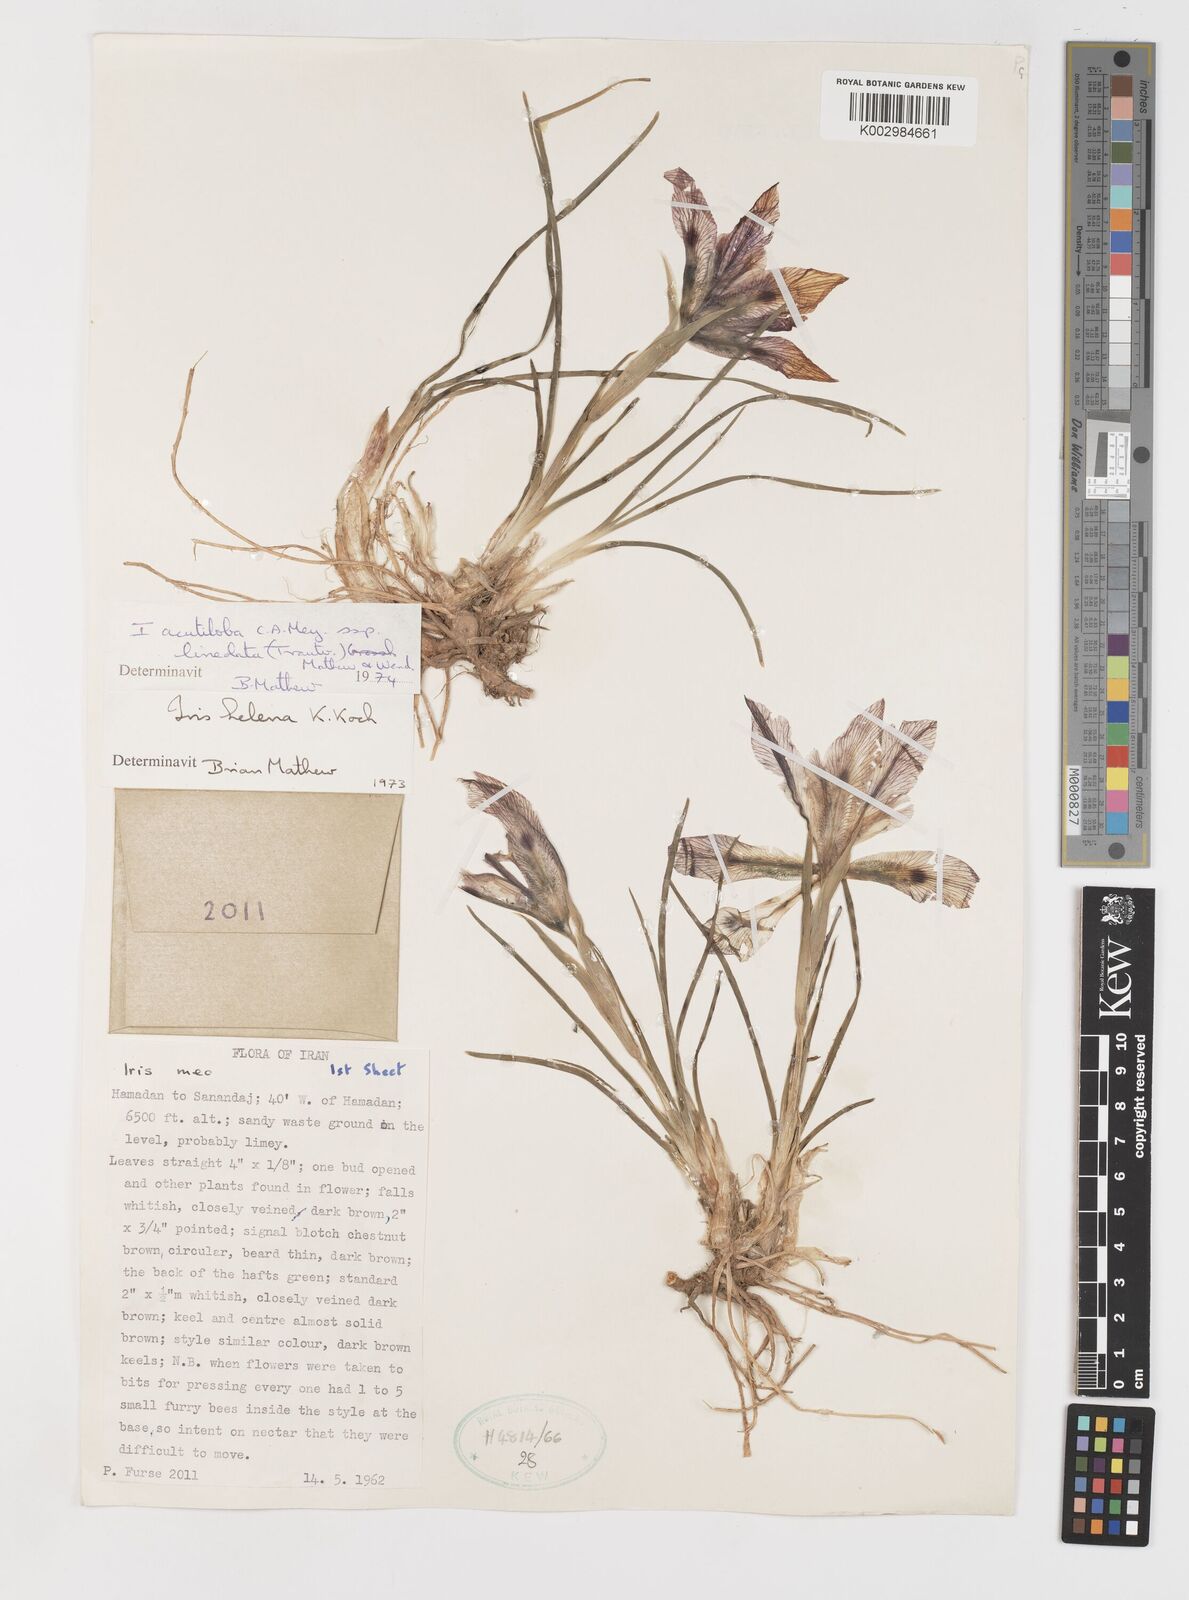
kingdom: Plantae
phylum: Tracheophyta
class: Liliopsida
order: Asparagales
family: Iridaceae
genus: Iris
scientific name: Iris acutiloba
